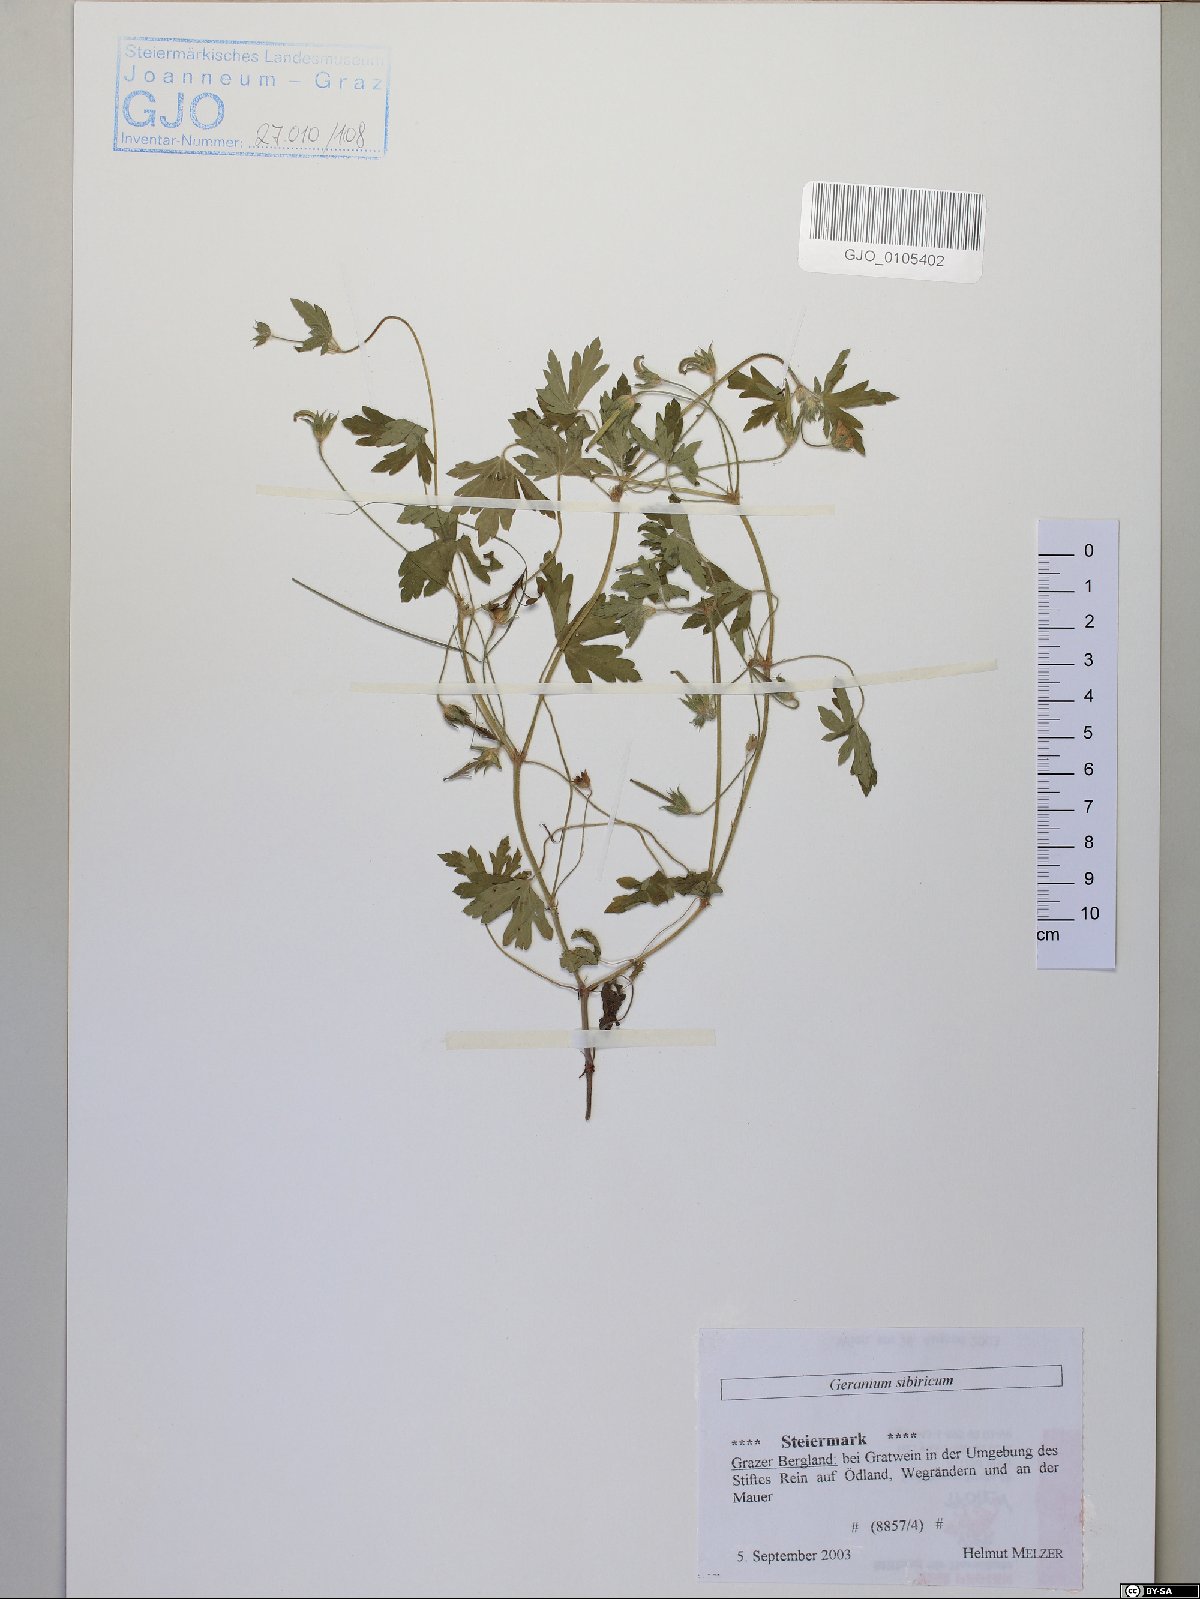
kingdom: Plantae
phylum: Tracheophyta
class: Magnoliopsida
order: Geraniales
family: Geraniaceae
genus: Geranium
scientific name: Geranium sibiricum
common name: Siberian crane's-bill
